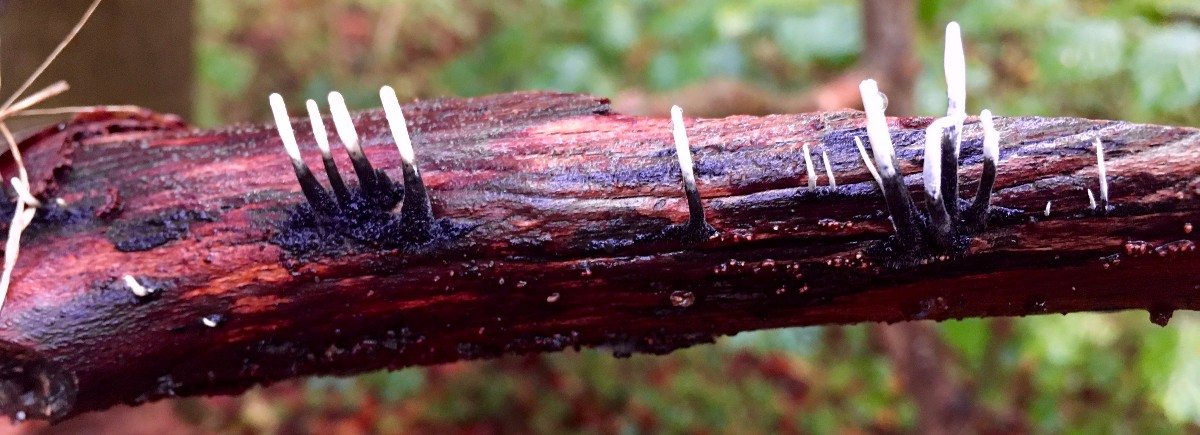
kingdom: Fungi
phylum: Ascomycota
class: Sordariomycetes
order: Xylariales
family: Xylariaceae
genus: Xylaria
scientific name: Xylaria hypoxylon
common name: grenet stødsvamp
